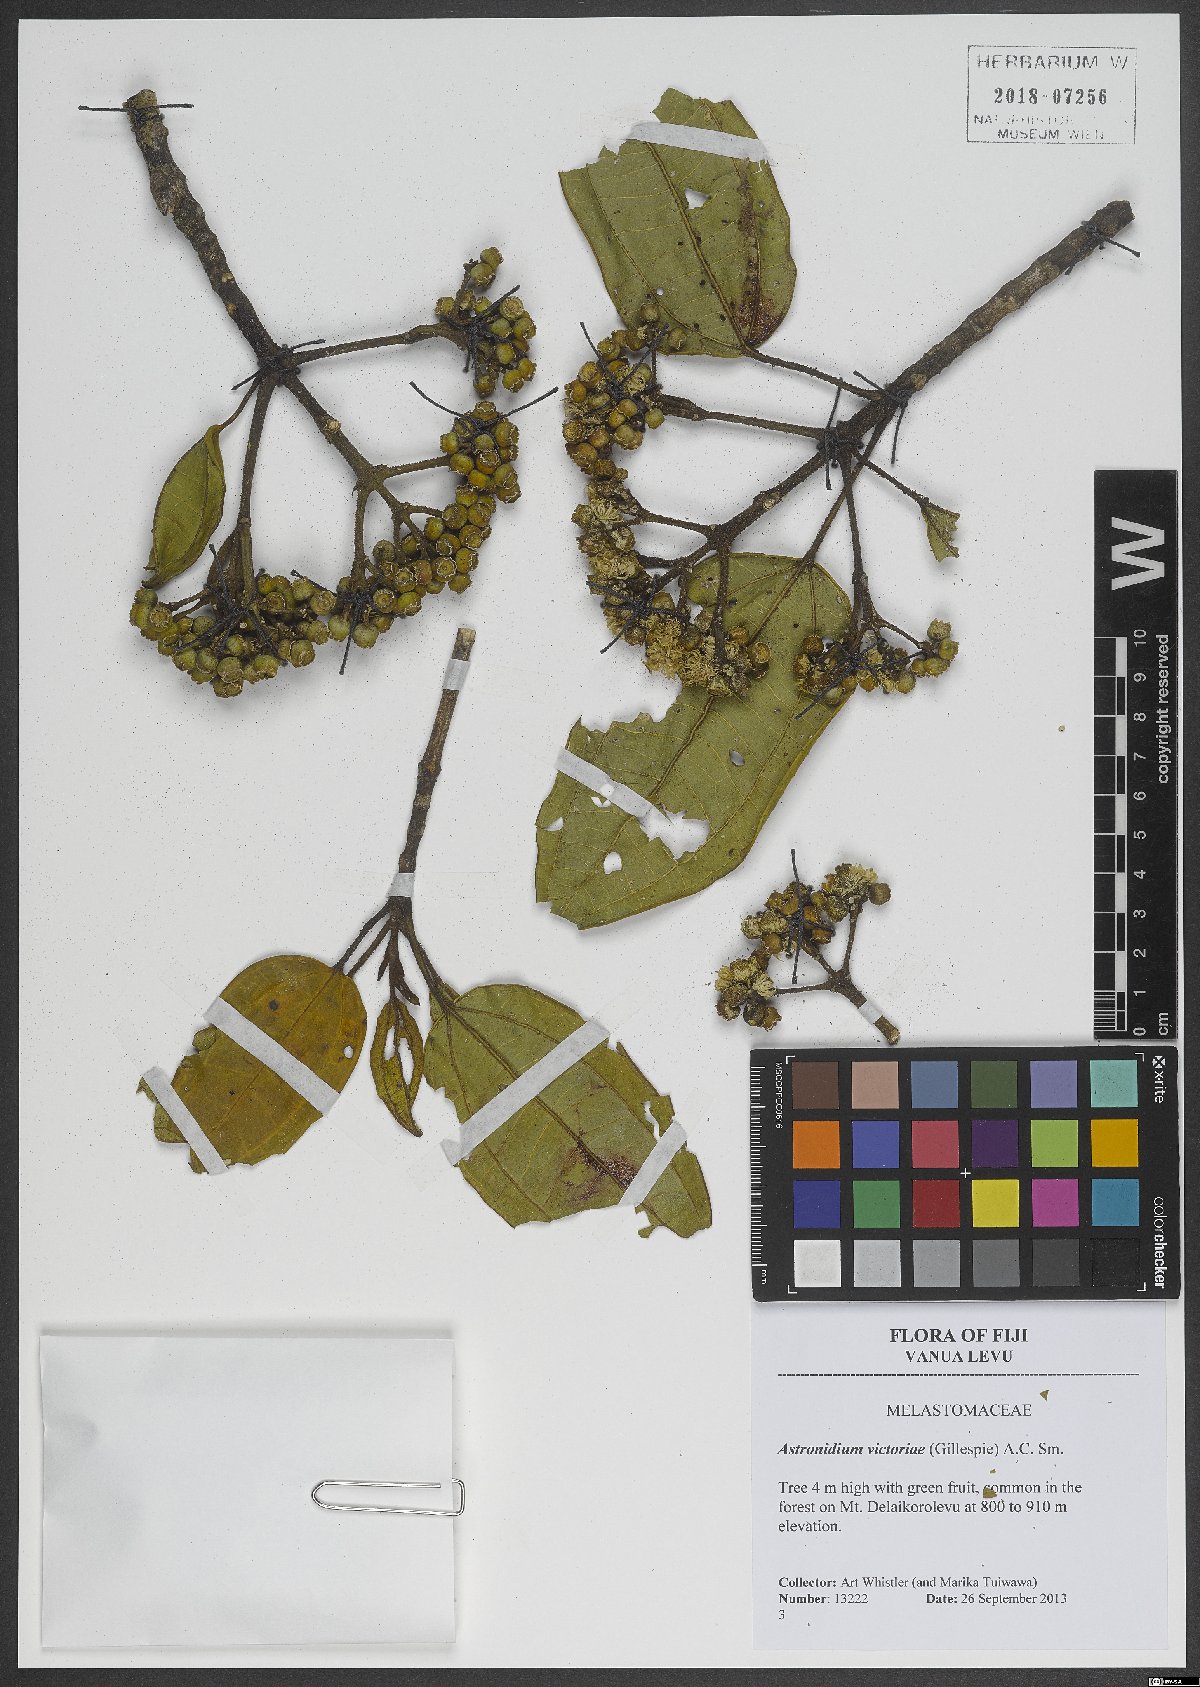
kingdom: Plantae
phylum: Tracheophyta
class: Magnoliopsida
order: Myrtales
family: Melastomataceae
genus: Astronidium
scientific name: Astronidium victoriae
